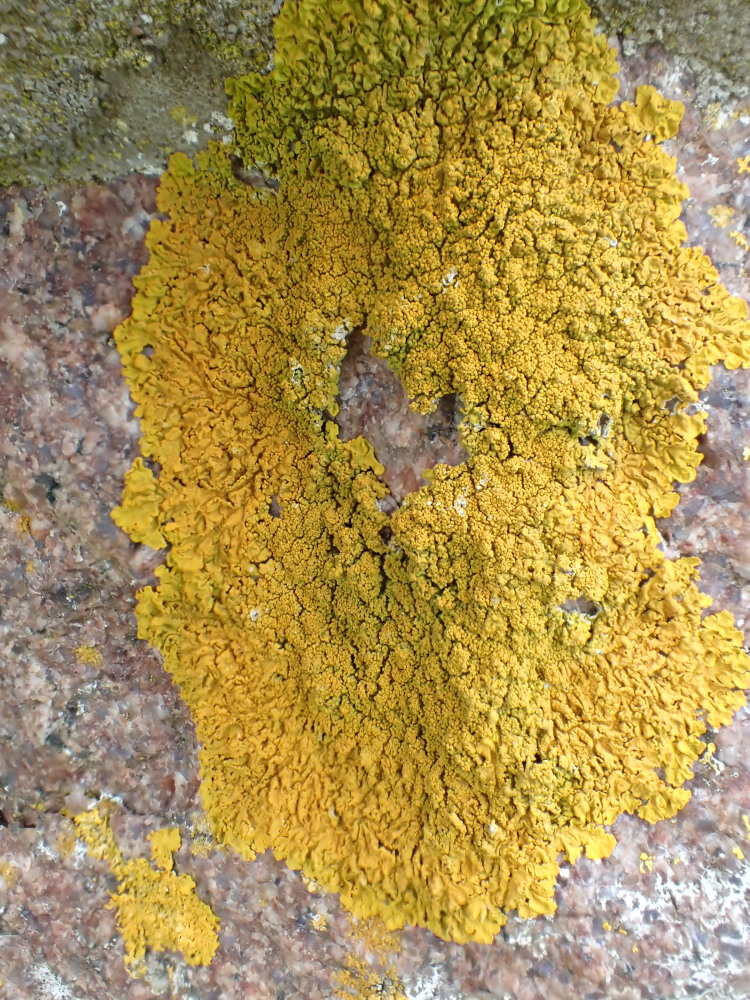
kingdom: Fungi
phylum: Ascomycota
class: Lecanoromycetes
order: Teloschistales
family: Teloschistaceae
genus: Xanthoria
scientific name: Xanthoria calcicola
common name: vortet væggelav
